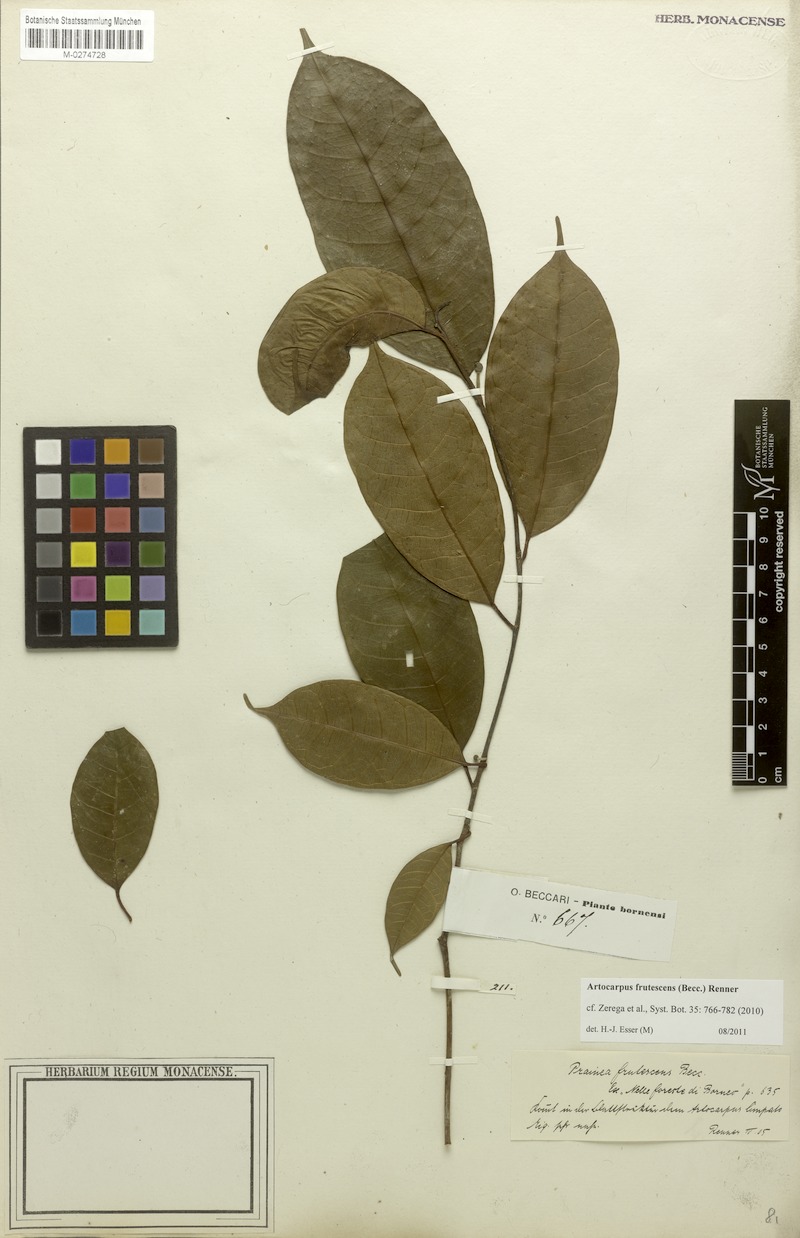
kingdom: Plantae
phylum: Tracheophyta
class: Magnoliopsida
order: Rosales
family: Moraceae
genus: Prainea
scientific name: Prainea scandens
